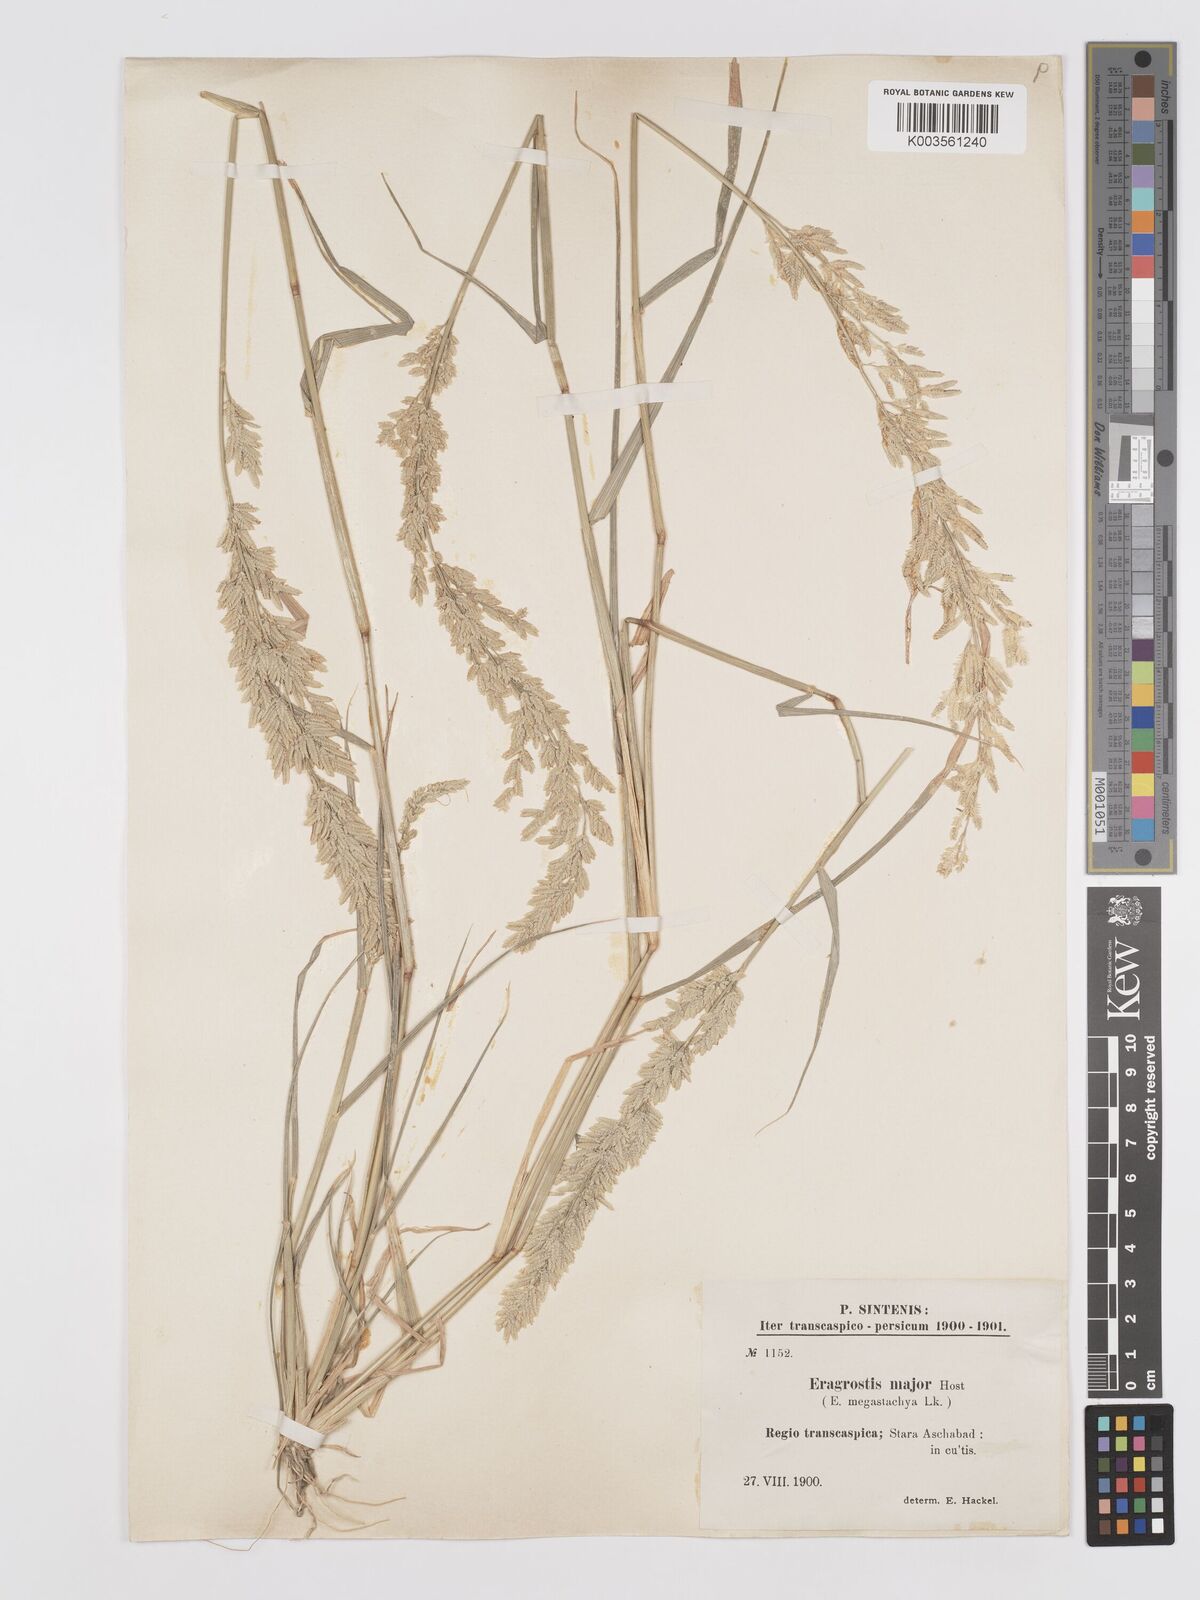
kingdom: Plantae
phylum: Tracheophyta
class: Liliopsida
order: Poales
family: Poaceae
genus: Eragrostis
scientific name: Eragrostis cilianensis
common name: Stinkgrass
